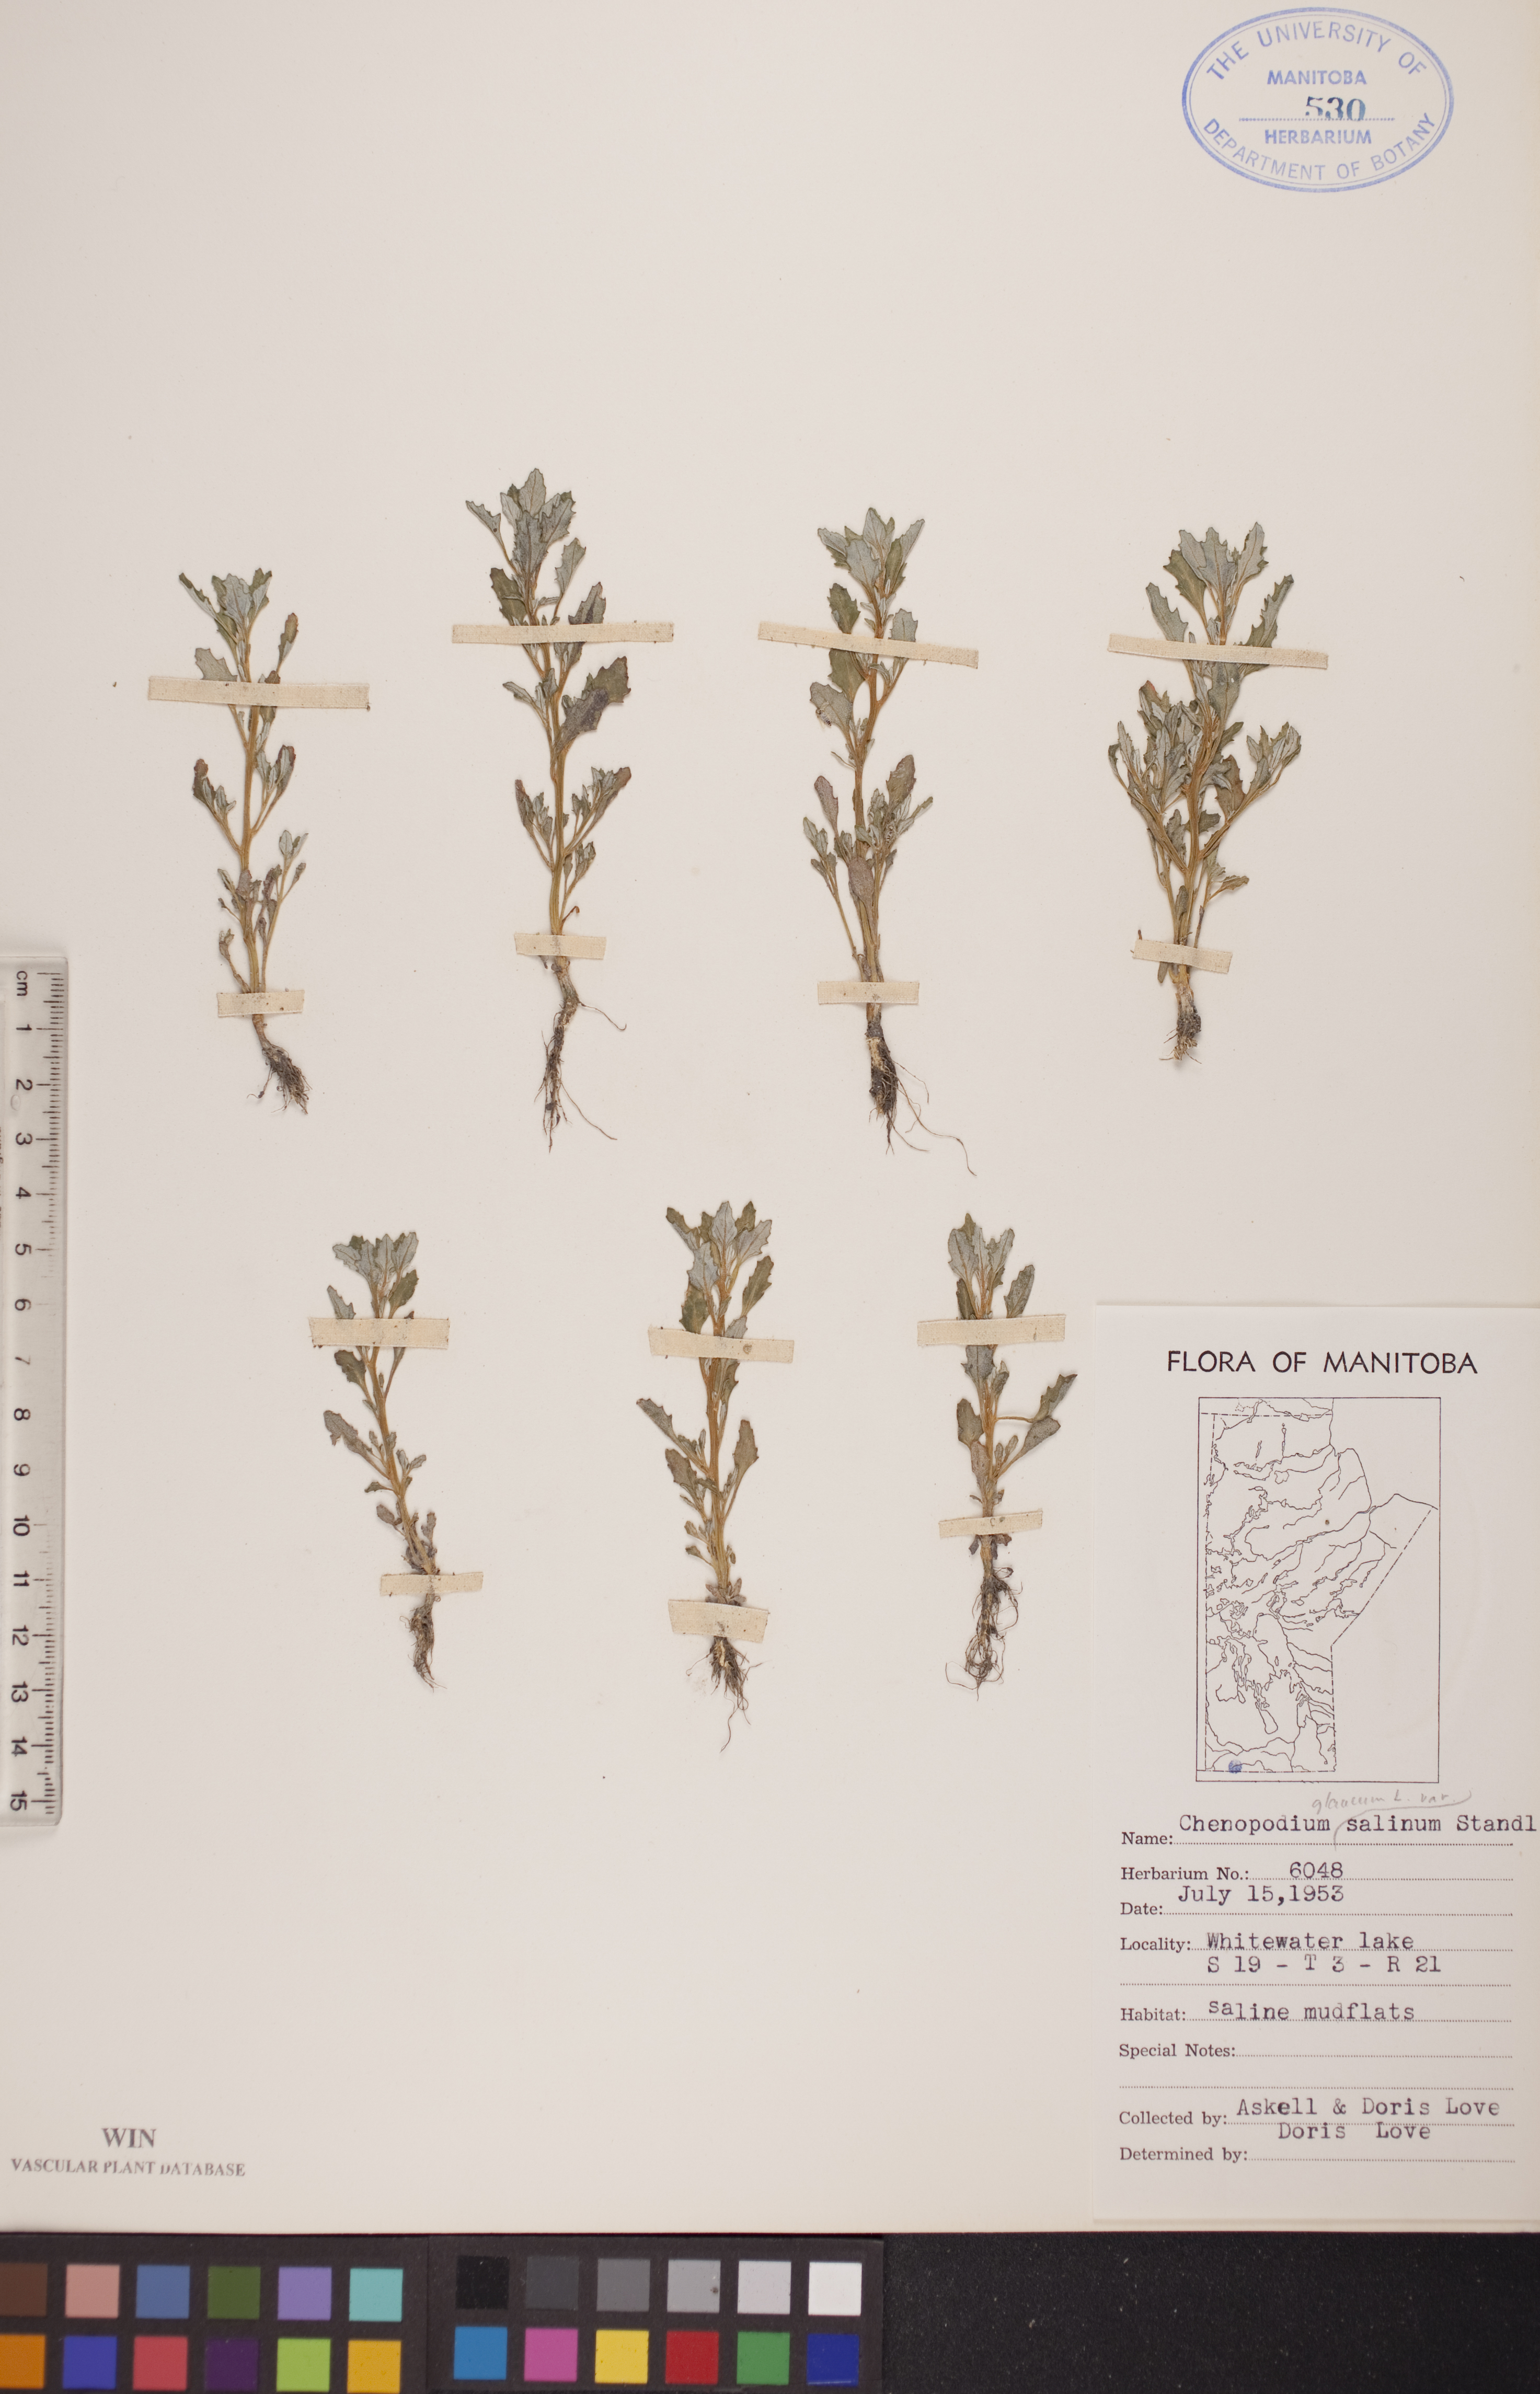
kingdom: Plantae
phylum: Tracheophyta
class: Magnoliopsida
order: Caryophyllales
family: Amaranthaceae
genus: Oxybasis
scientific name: Oxybasis salina
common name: Rocky mountain goosefoot
